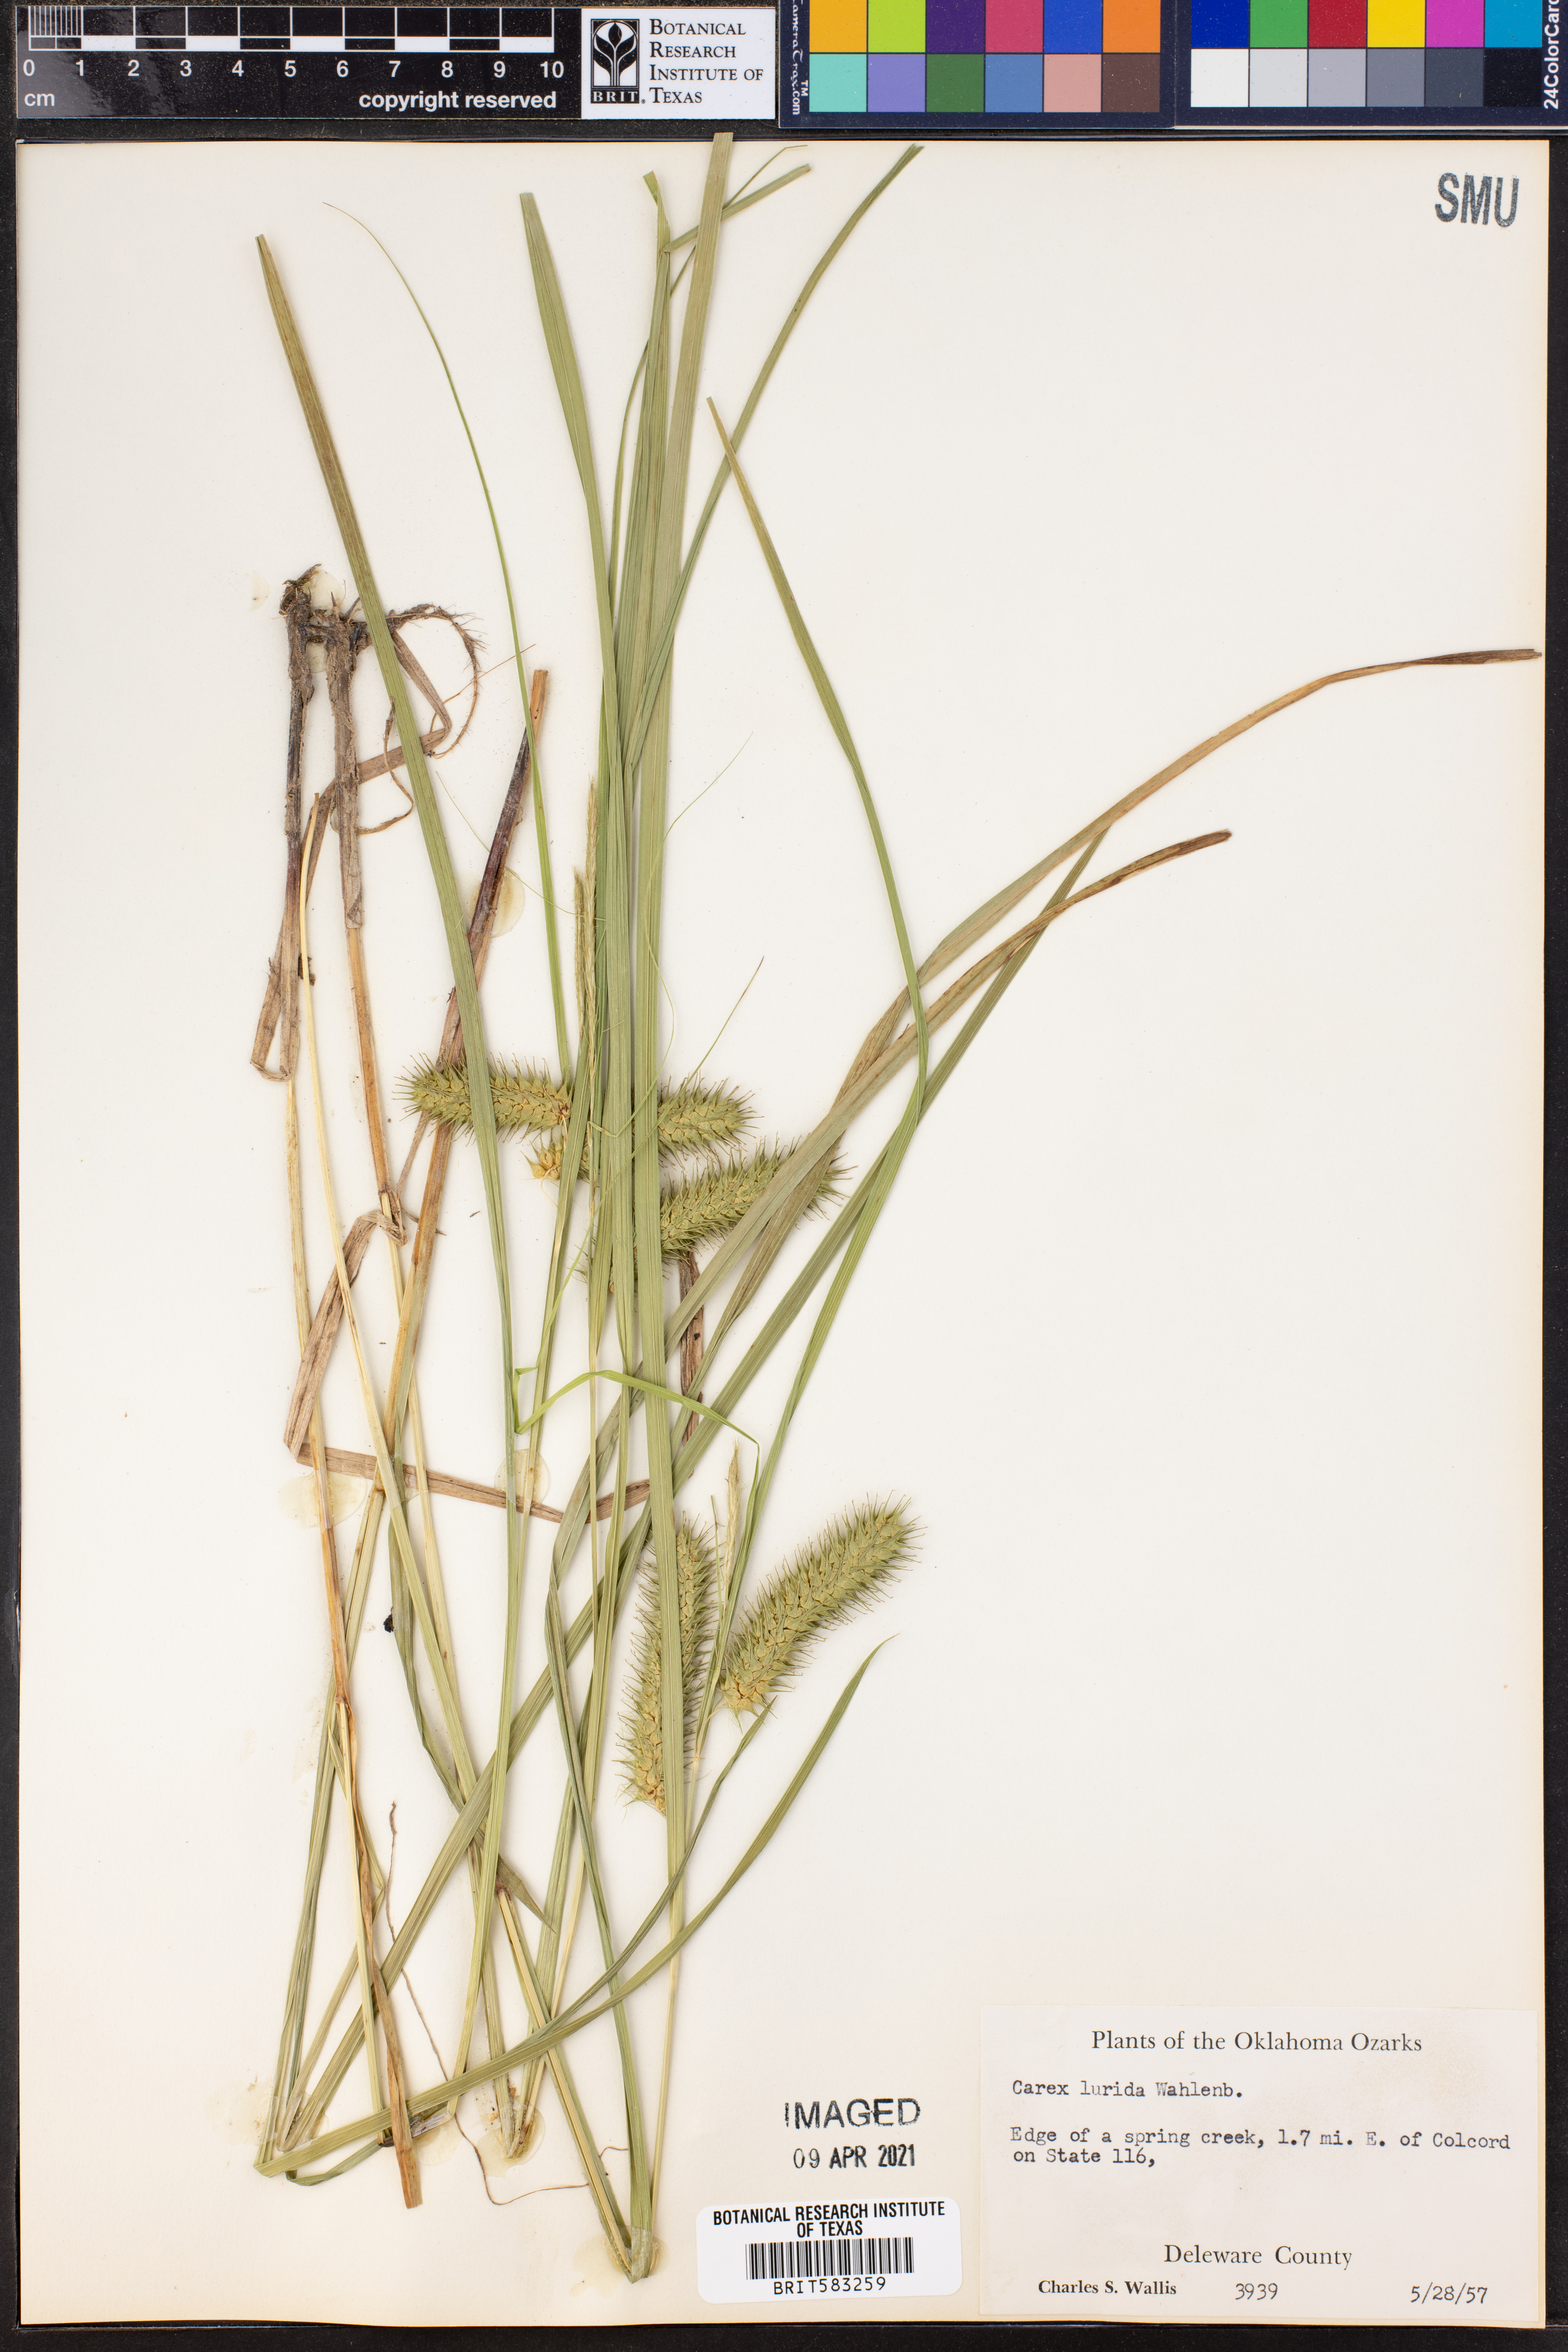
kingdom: Plantae
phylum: Tracheophyta
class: Liliopsida
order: Poales
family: Cyperaceae
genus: Carex
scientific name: Carex lurida
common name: Sallow sedge
